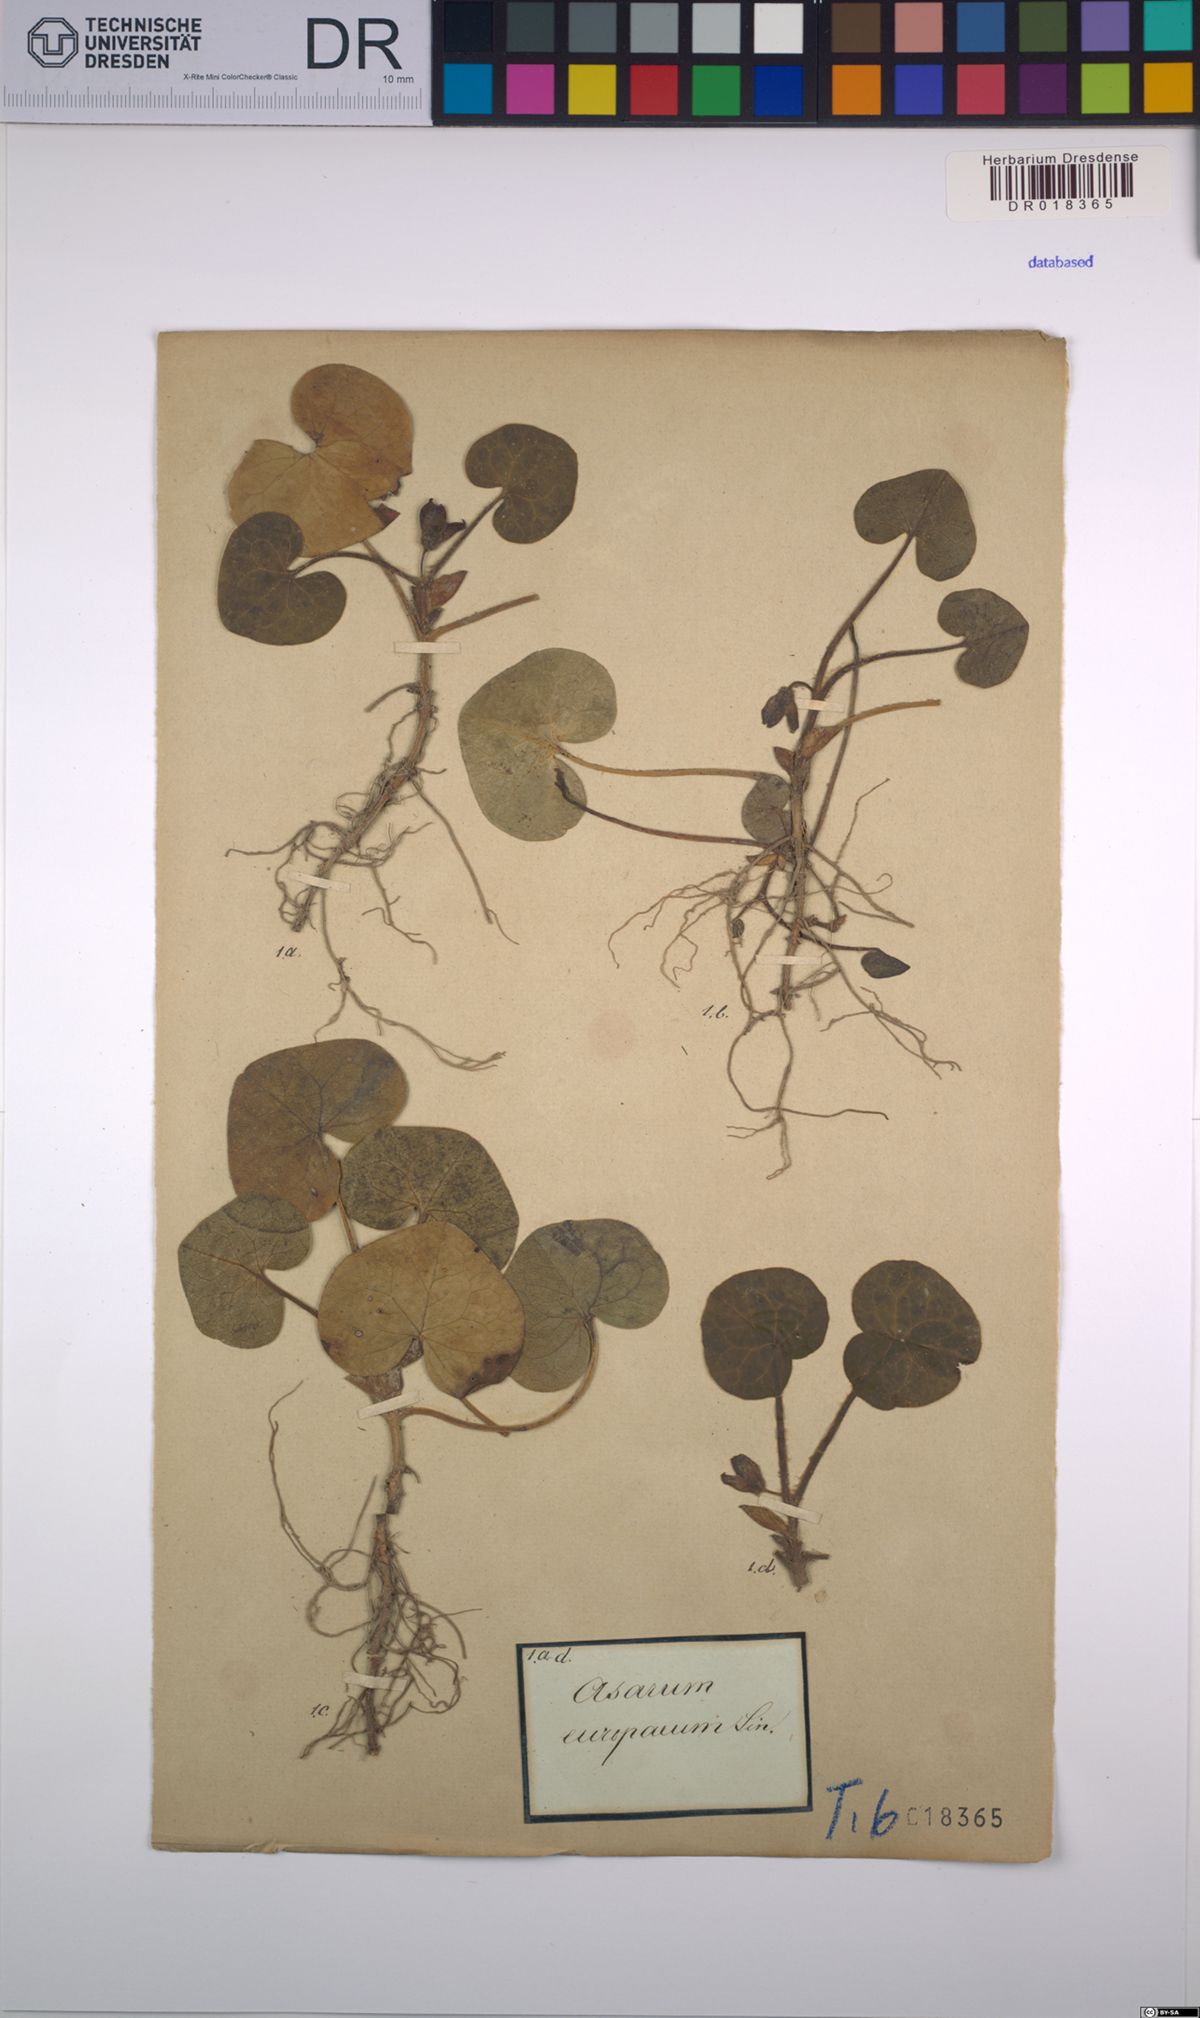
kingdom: Plantae
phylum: Tracheophyta
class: Magnoliopsida
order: Piperales
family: Aristolochiaceae
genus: Asarum
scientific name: Asarum europaeum
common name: Asarabacca
